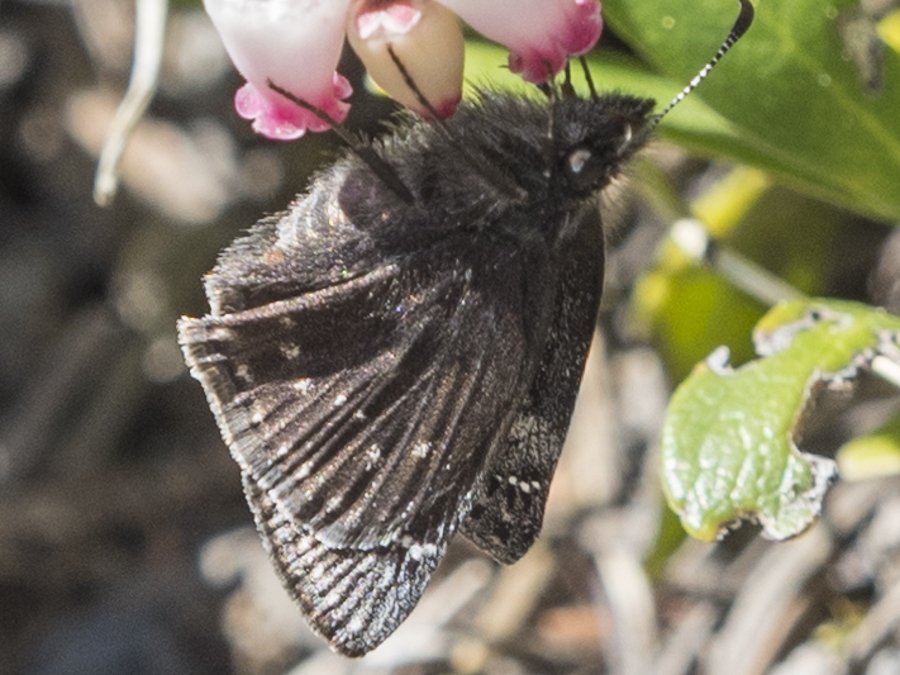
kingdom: Animalia
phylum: Arthropoda
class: Insecta
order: Lepidoptera
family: Hesperiidae
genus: Gesta
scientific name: Gesta
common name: Persius Duskywing
